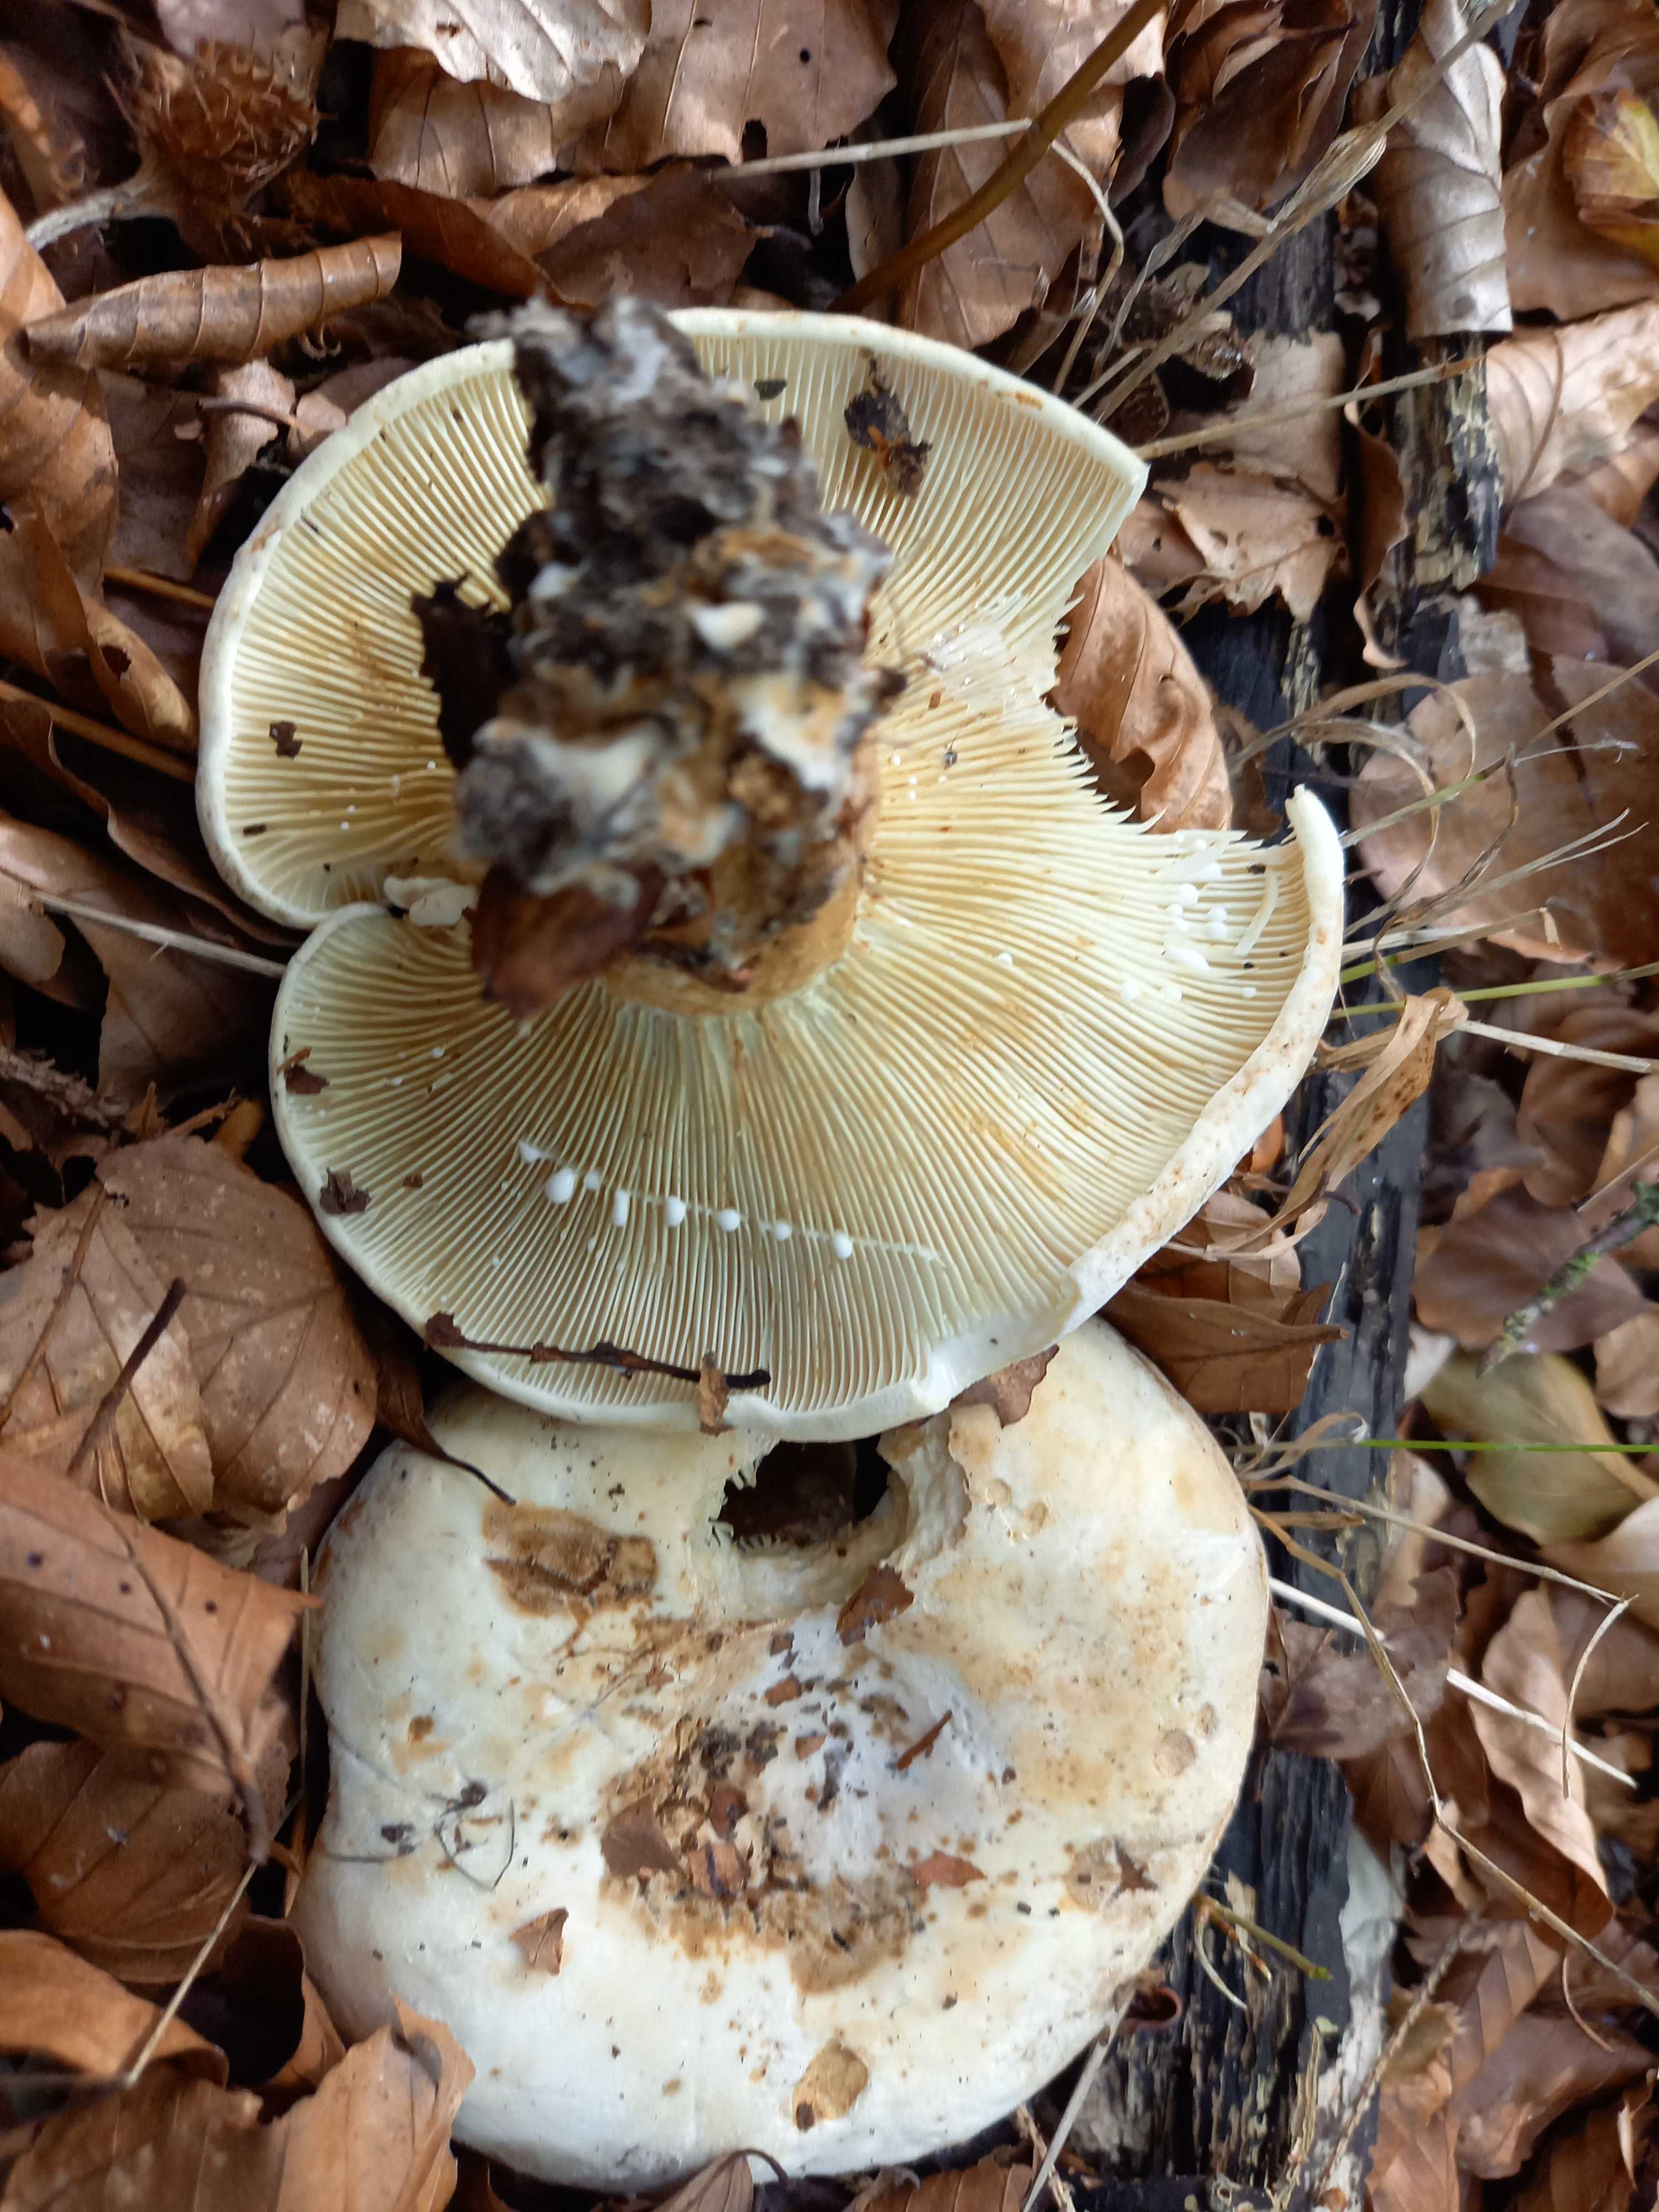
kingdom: Fungi
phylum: Basidiomycota
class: Agaricomycetes
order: Russulales
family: Russulaceae
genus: Lactifluus
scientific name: Lactifluus vellereus
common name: hvidfiltet mælkehat
